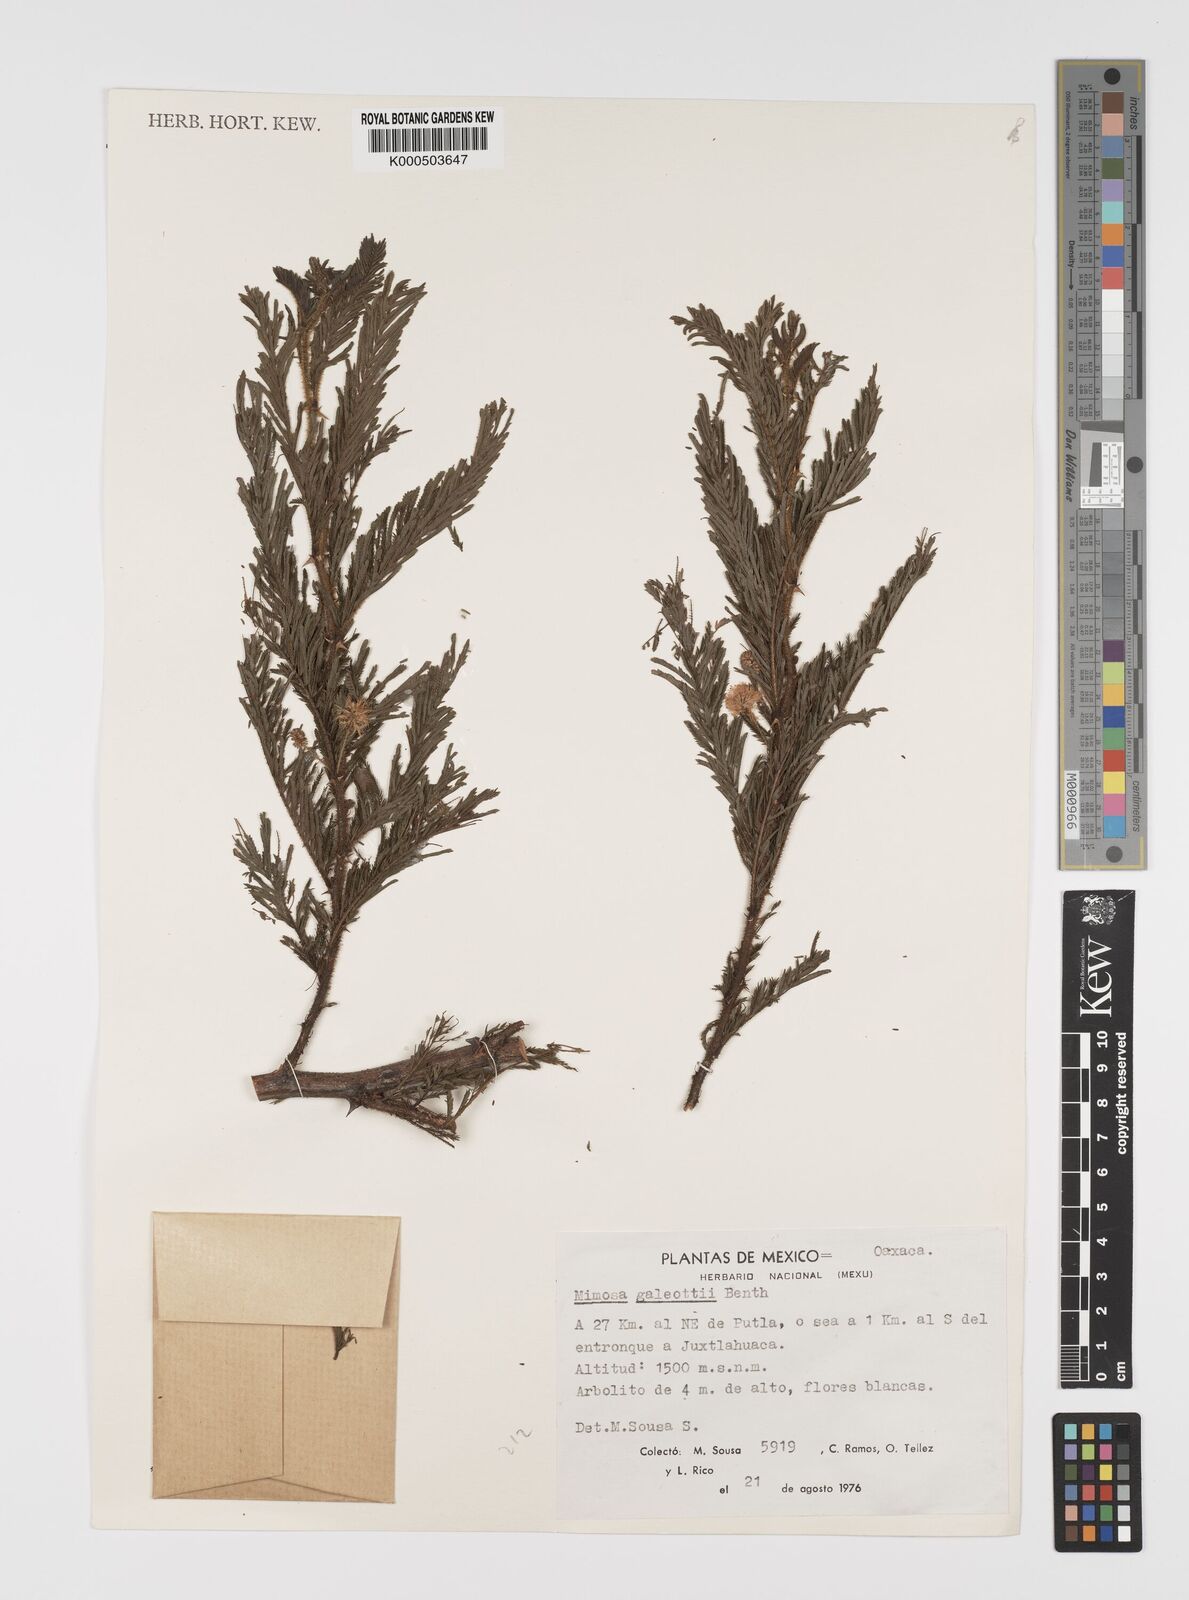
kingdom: Plantae
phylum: Tracheophyta
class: Magnoliopsida
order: Fabales
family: Fabaceae
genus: Mimosa
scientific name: Mimosa galeottii
